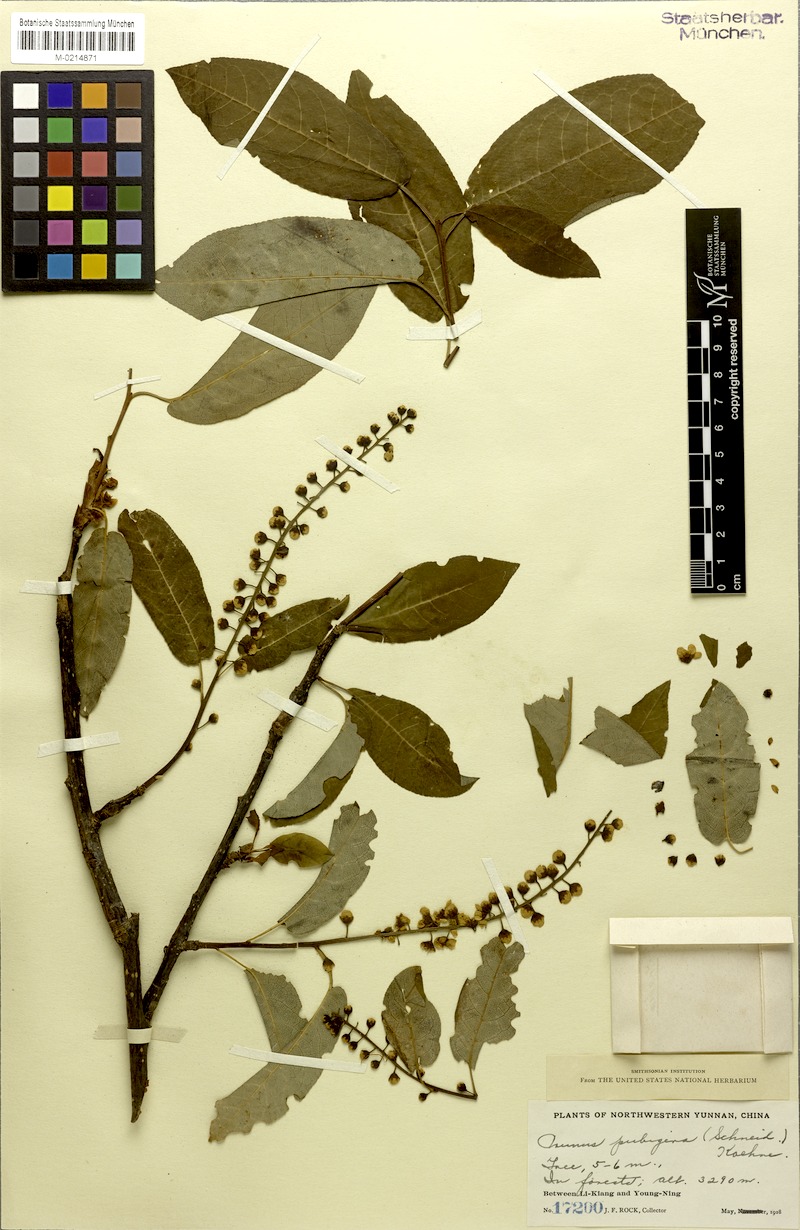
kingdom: Plantae
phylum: Tracheophyta
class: Magnoliopsida
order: Rosales
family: Rosaceae
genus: Prunus
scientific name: Prunus obtusata
